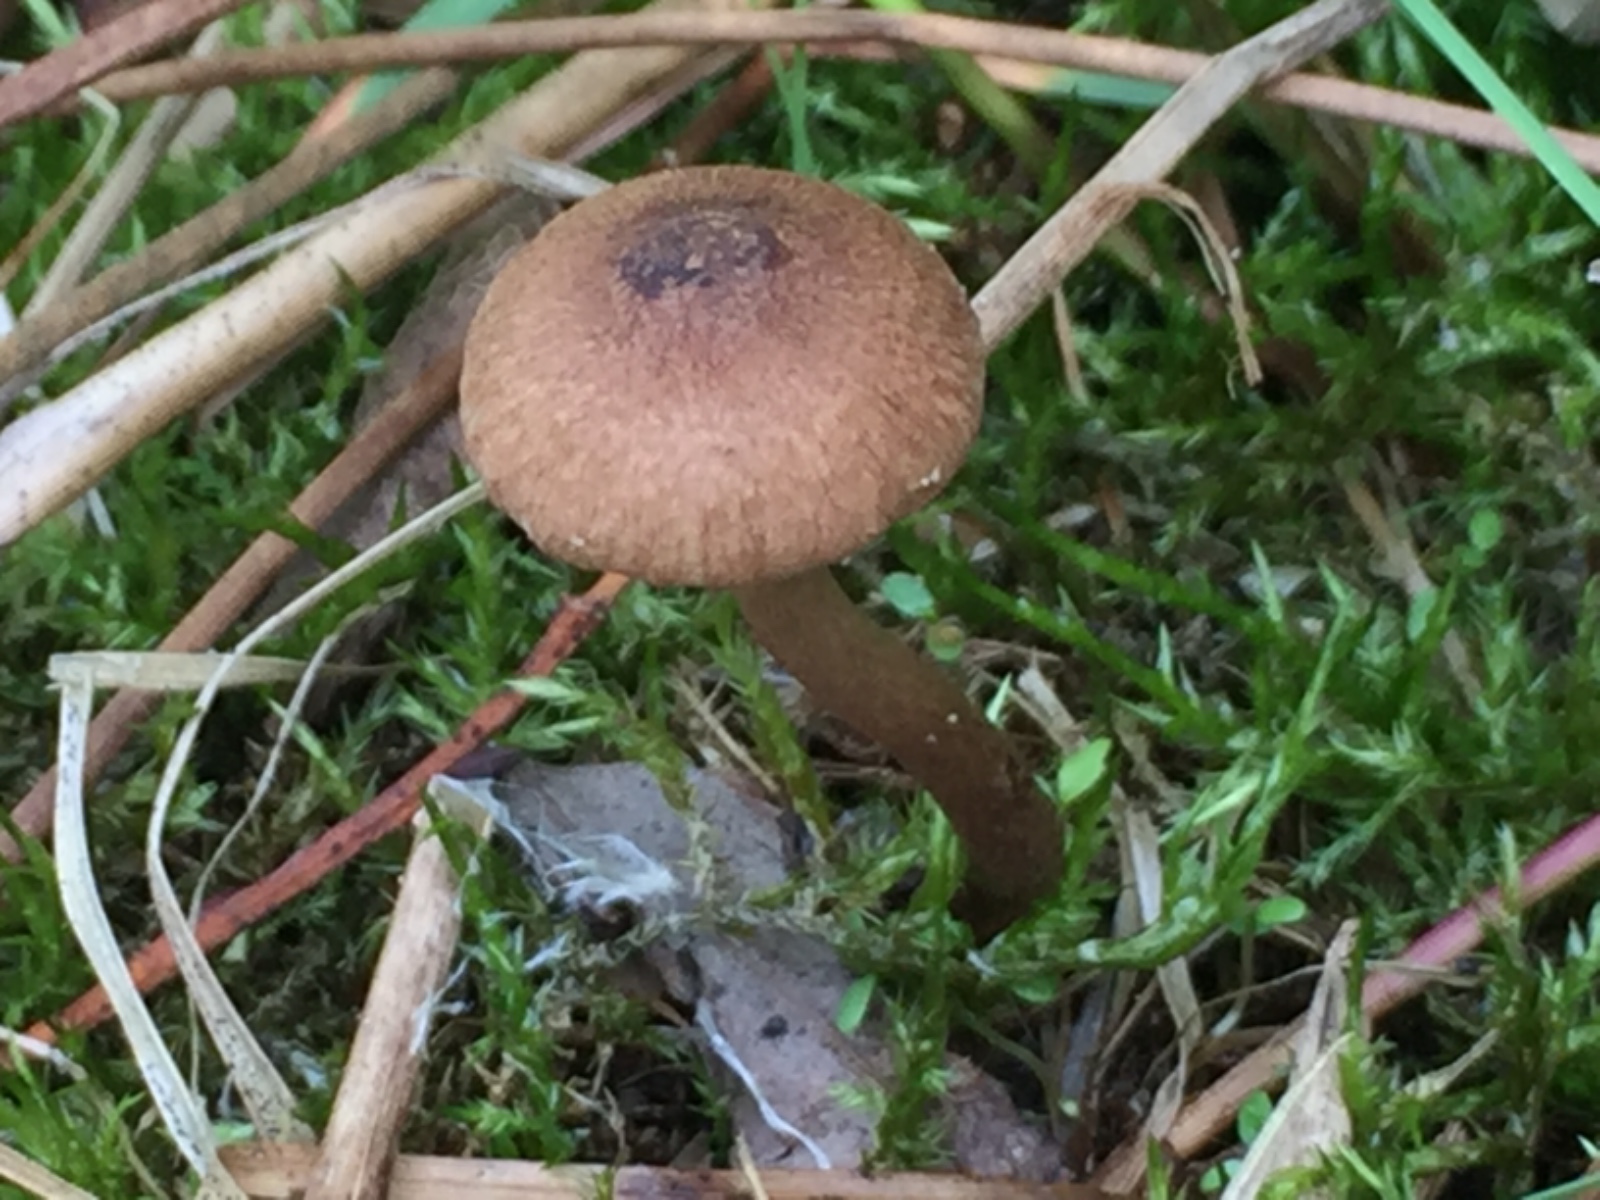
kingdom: Fungi
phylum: Basidiomycota
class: Agaricomycetes
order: Agaricales
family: Inocybaceae
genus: Inocybe
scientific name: Inocybe lacera
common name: laset trævlhat
